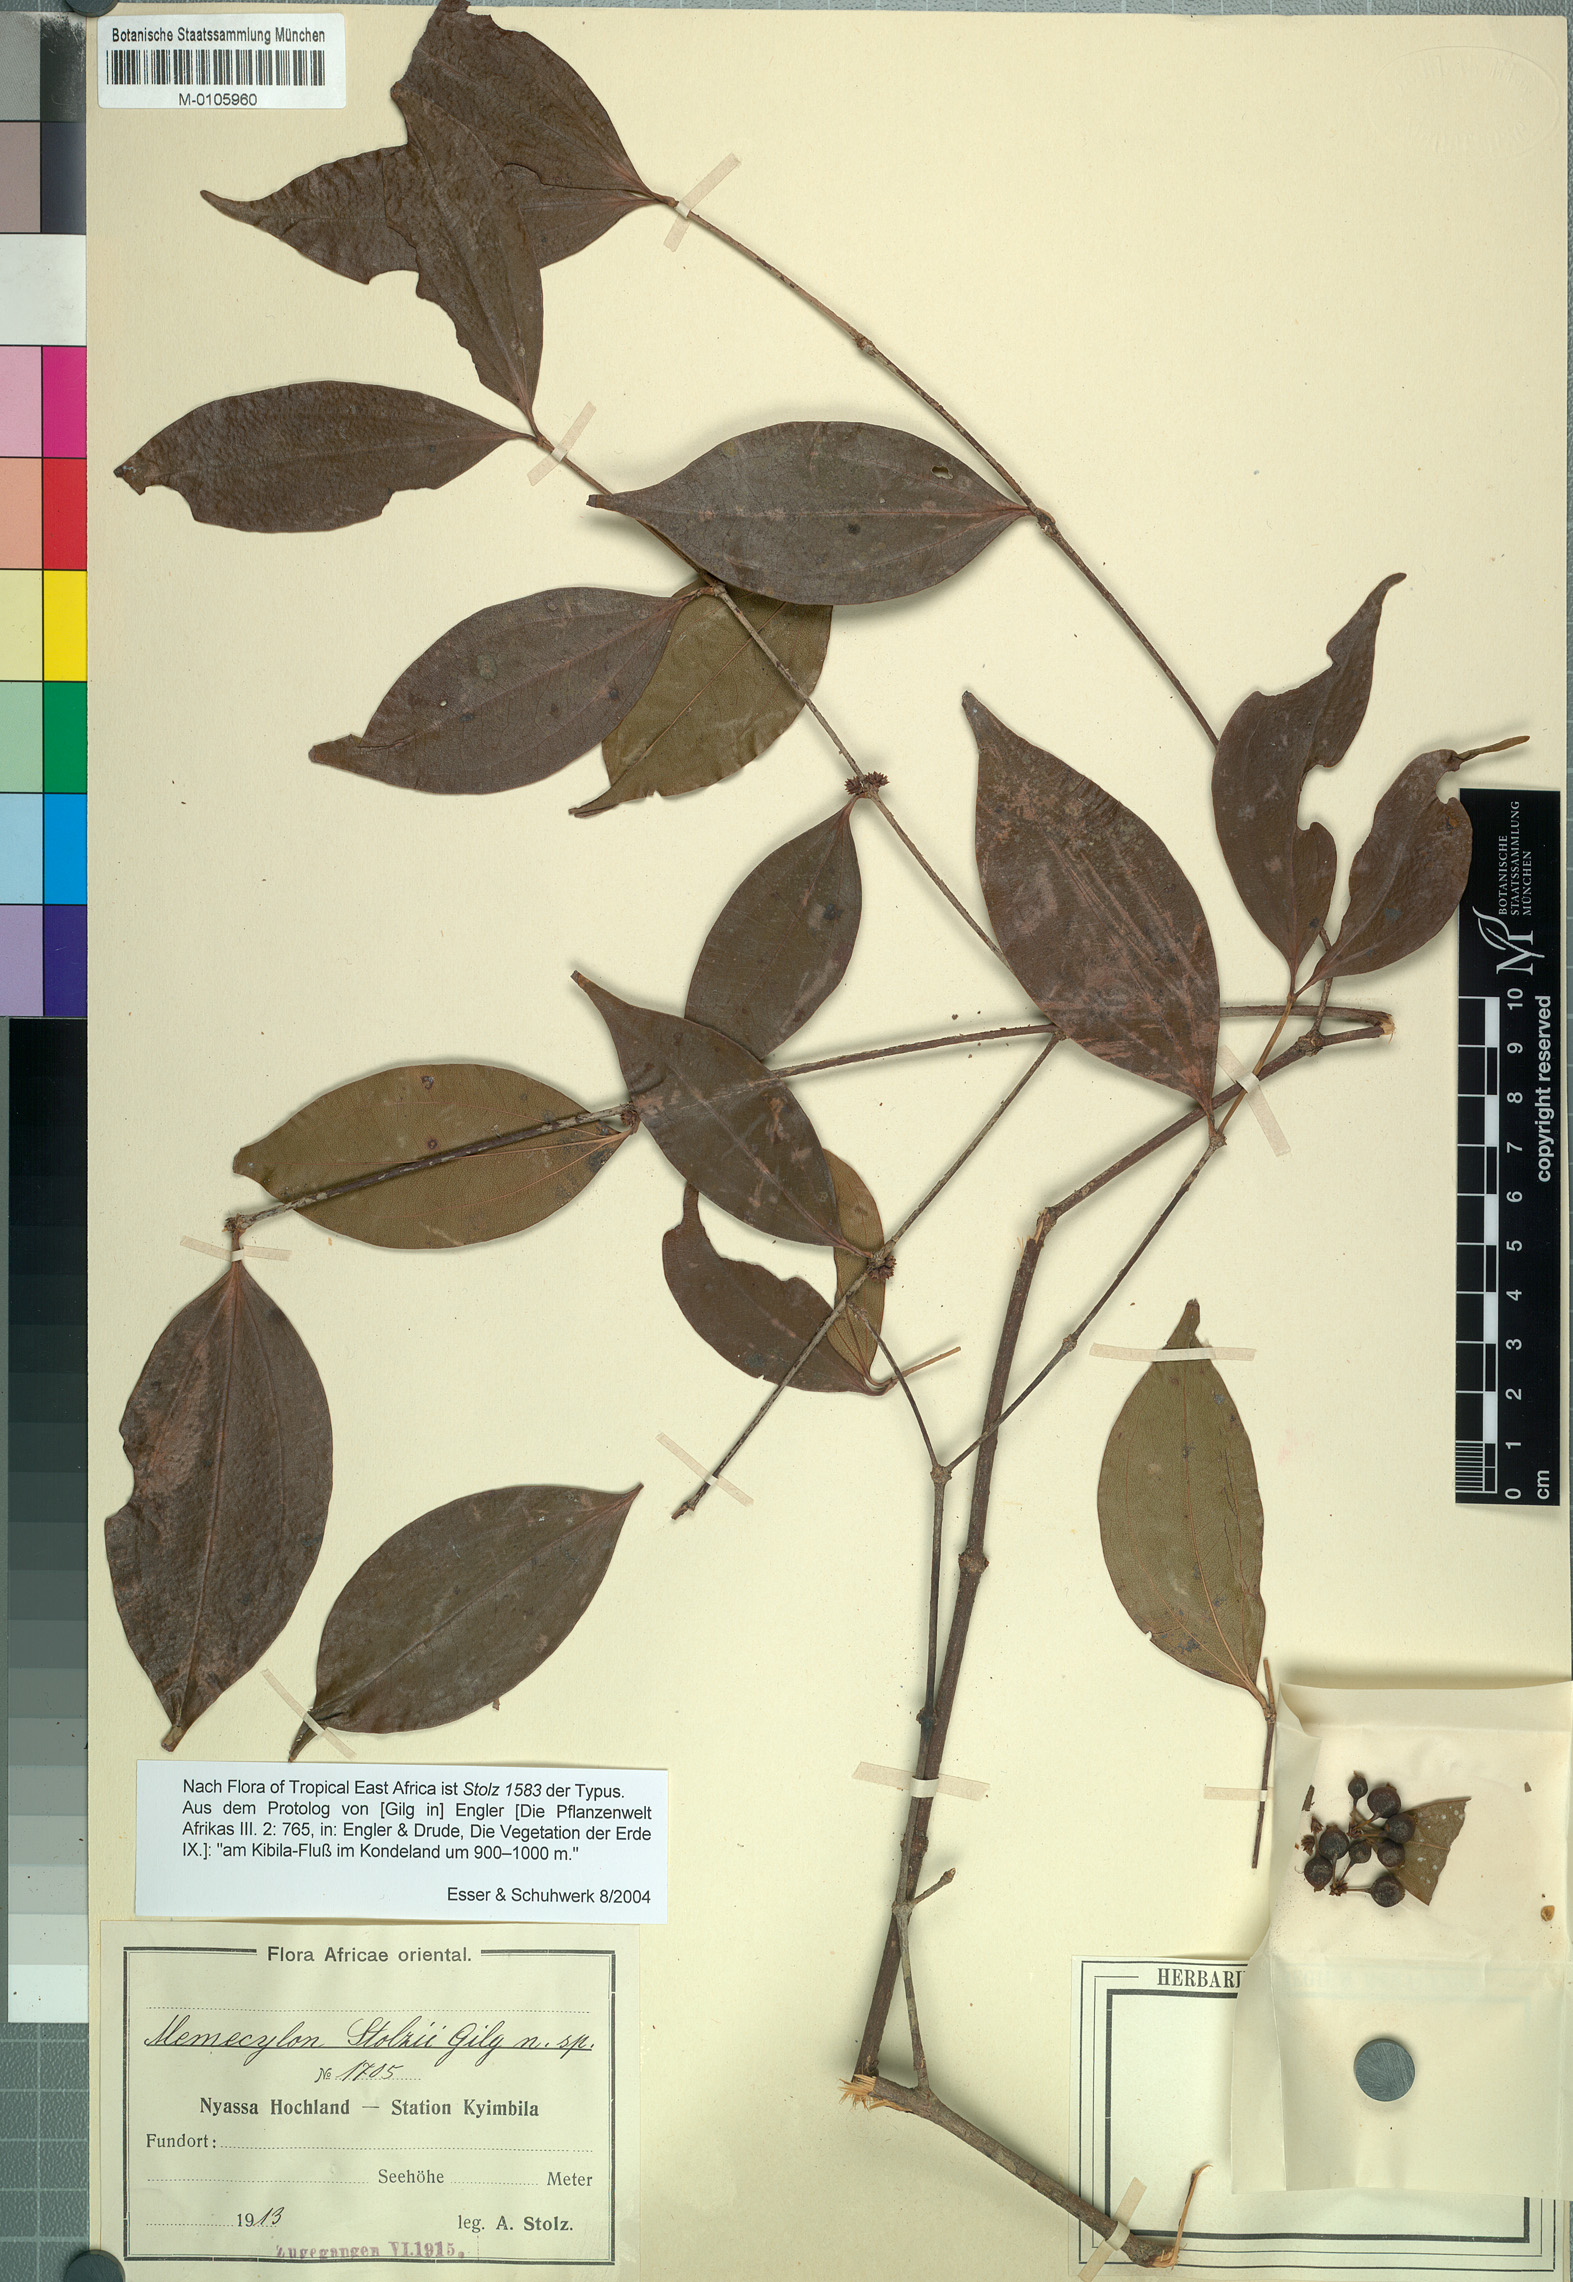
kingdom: Plantae
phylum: Tracheophyta
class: Magnoliopsida
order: Myrtales
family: Melastomataceae
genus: Warneckea
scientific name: Warneckea sansibarica
